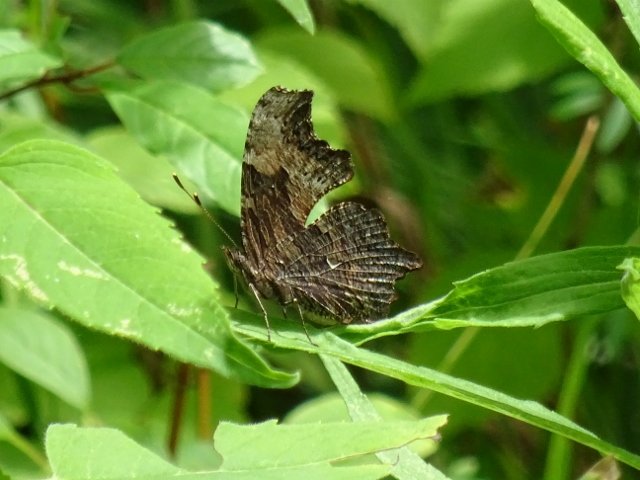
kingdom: Animalia
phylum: Arthropoda
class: Insecta
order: Lepidoptera
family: Nymphalidae
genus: Polygonia
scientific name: Polygonia progne
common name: Gray Comma
